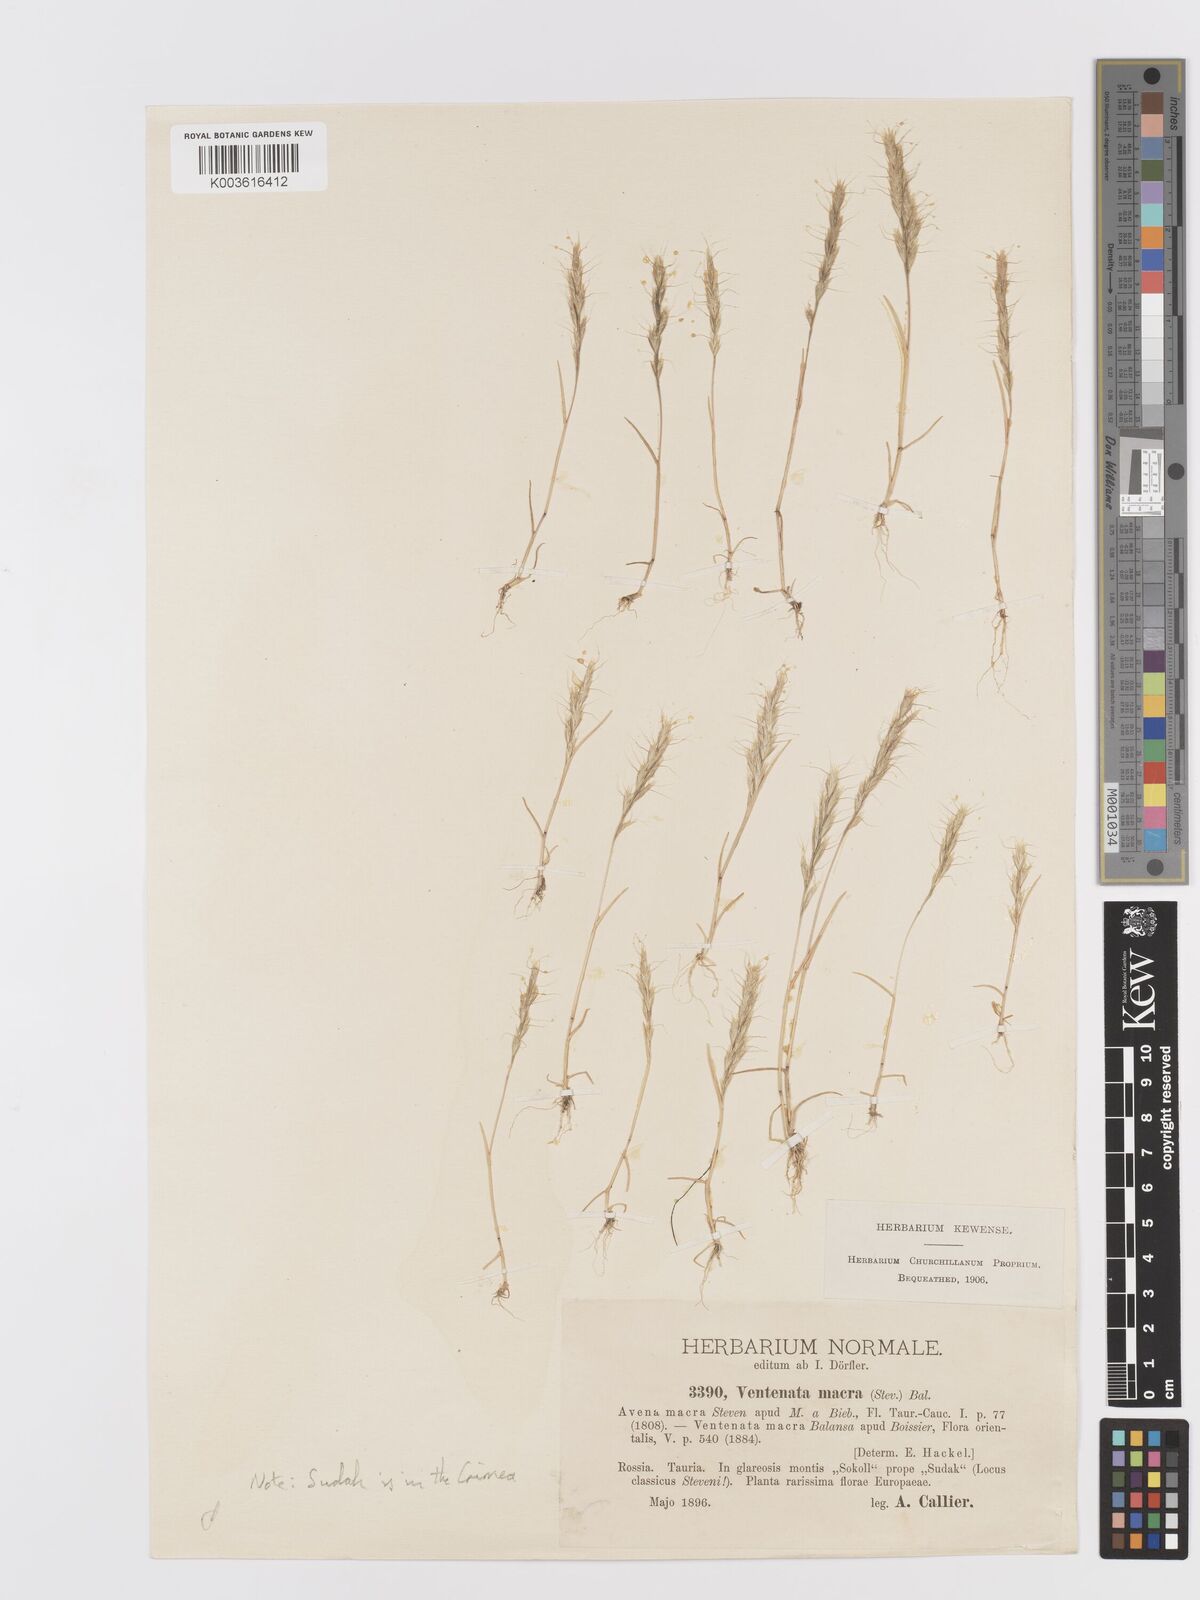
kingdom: Plantae
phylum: Tracheophyta
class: Liliopsida
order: Poales
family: Poaceae
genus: Ventenata
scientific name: Ventenata macra
